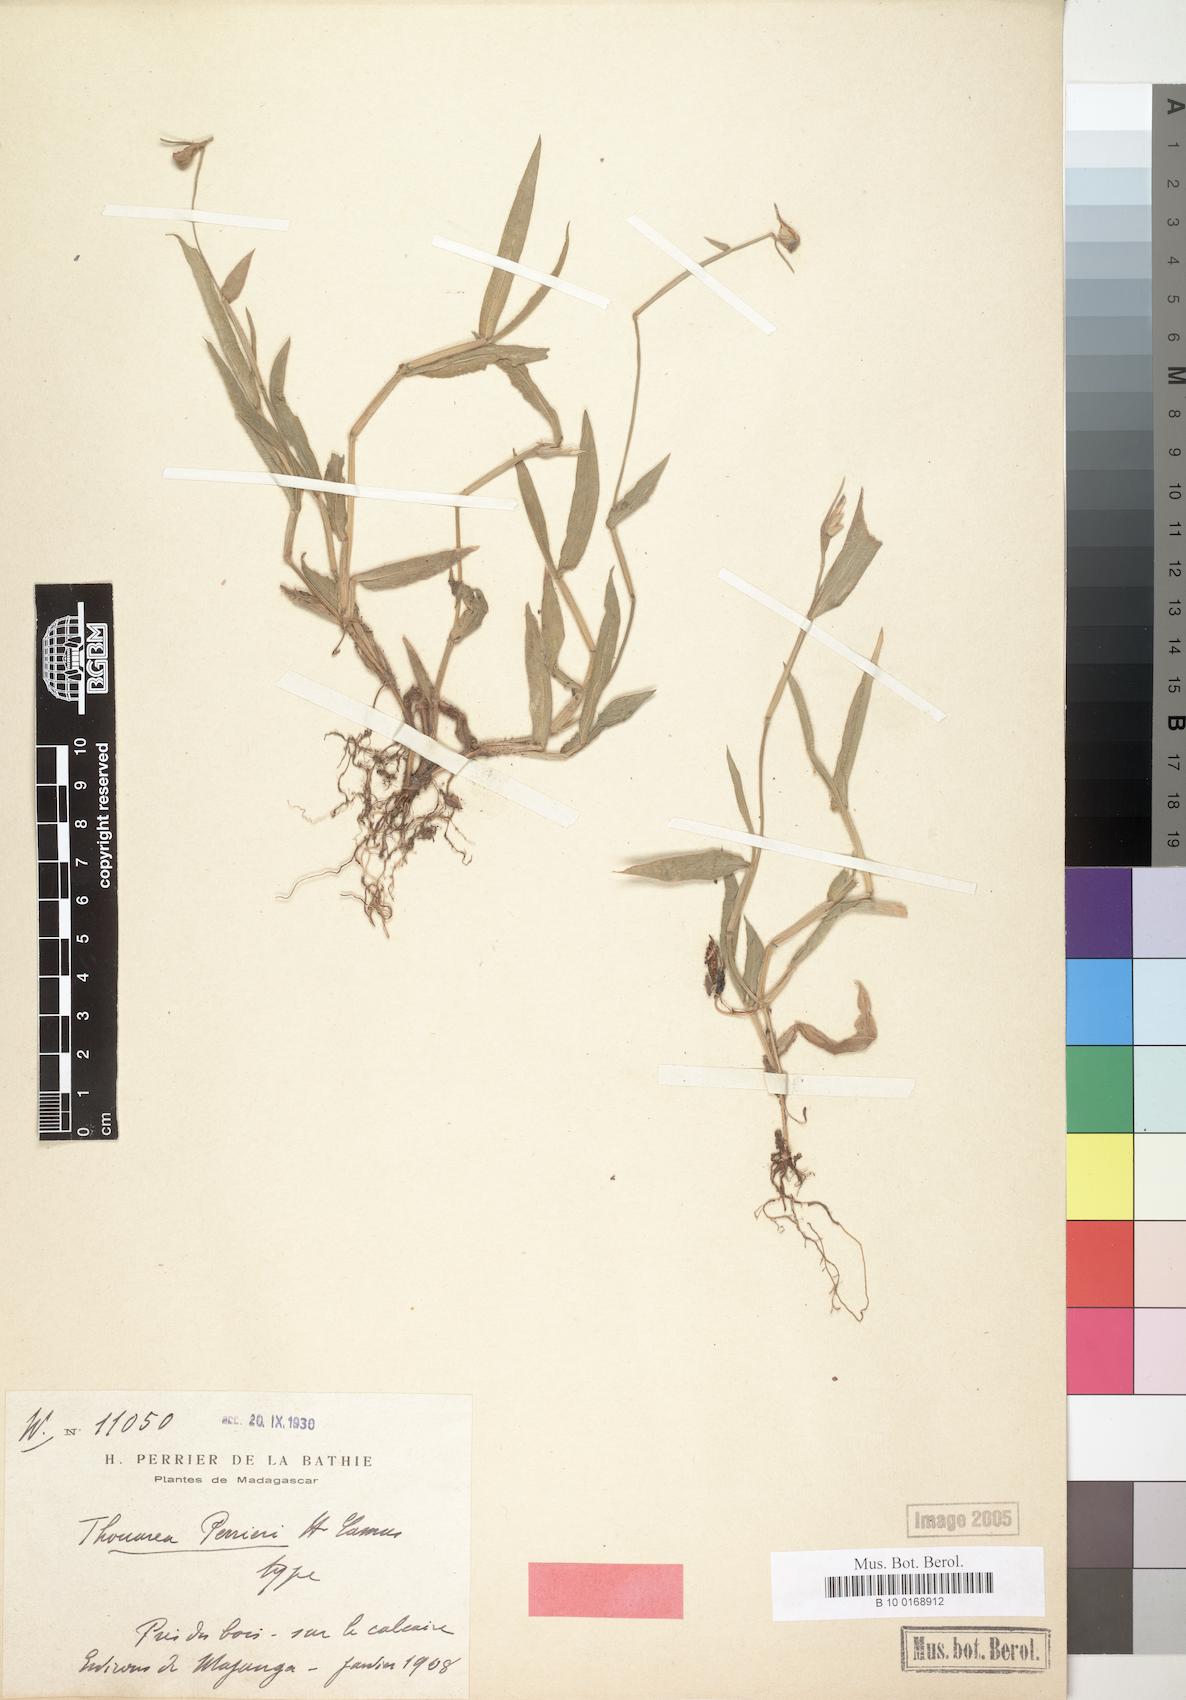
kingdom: Plantae
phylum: Tracheophyta
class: Liliopsida
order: Poales
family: Poaceae
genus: Thuarea
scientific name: Thuarea perrieri
